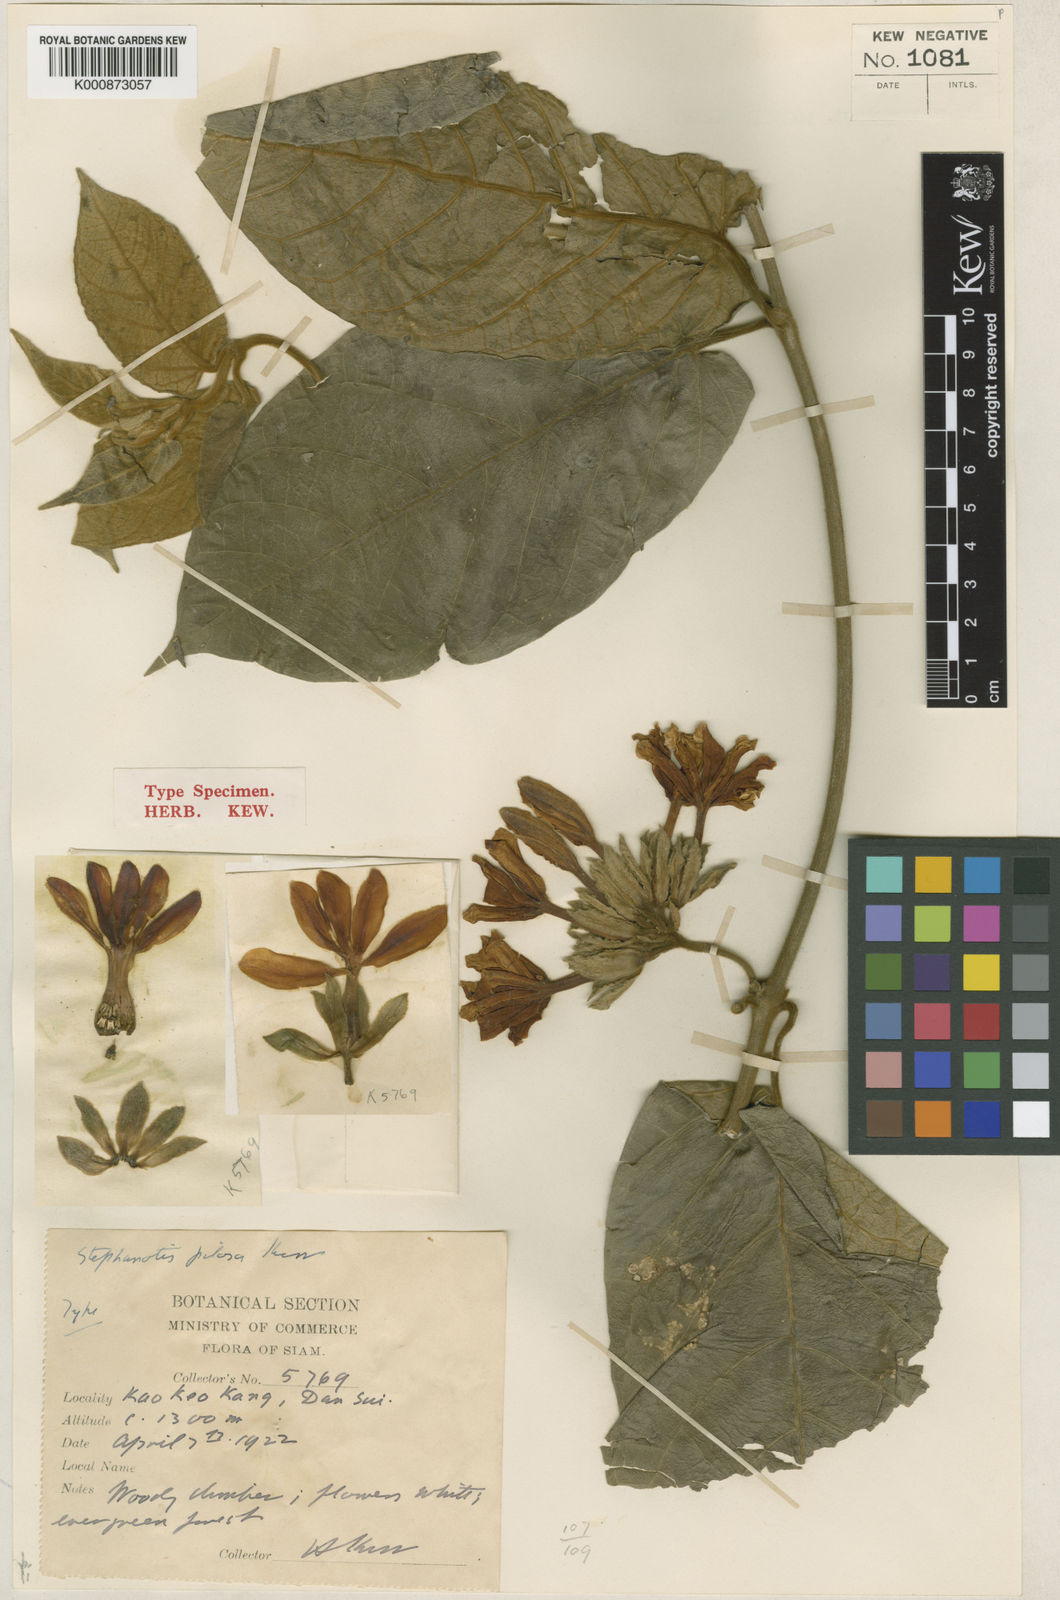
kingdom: Plantae
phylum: Tracheophyta
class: Magnoliopsida
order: Gentianales
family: Apocynaceae
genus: Jasminanthes
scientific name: Jasminanthes pilosa
